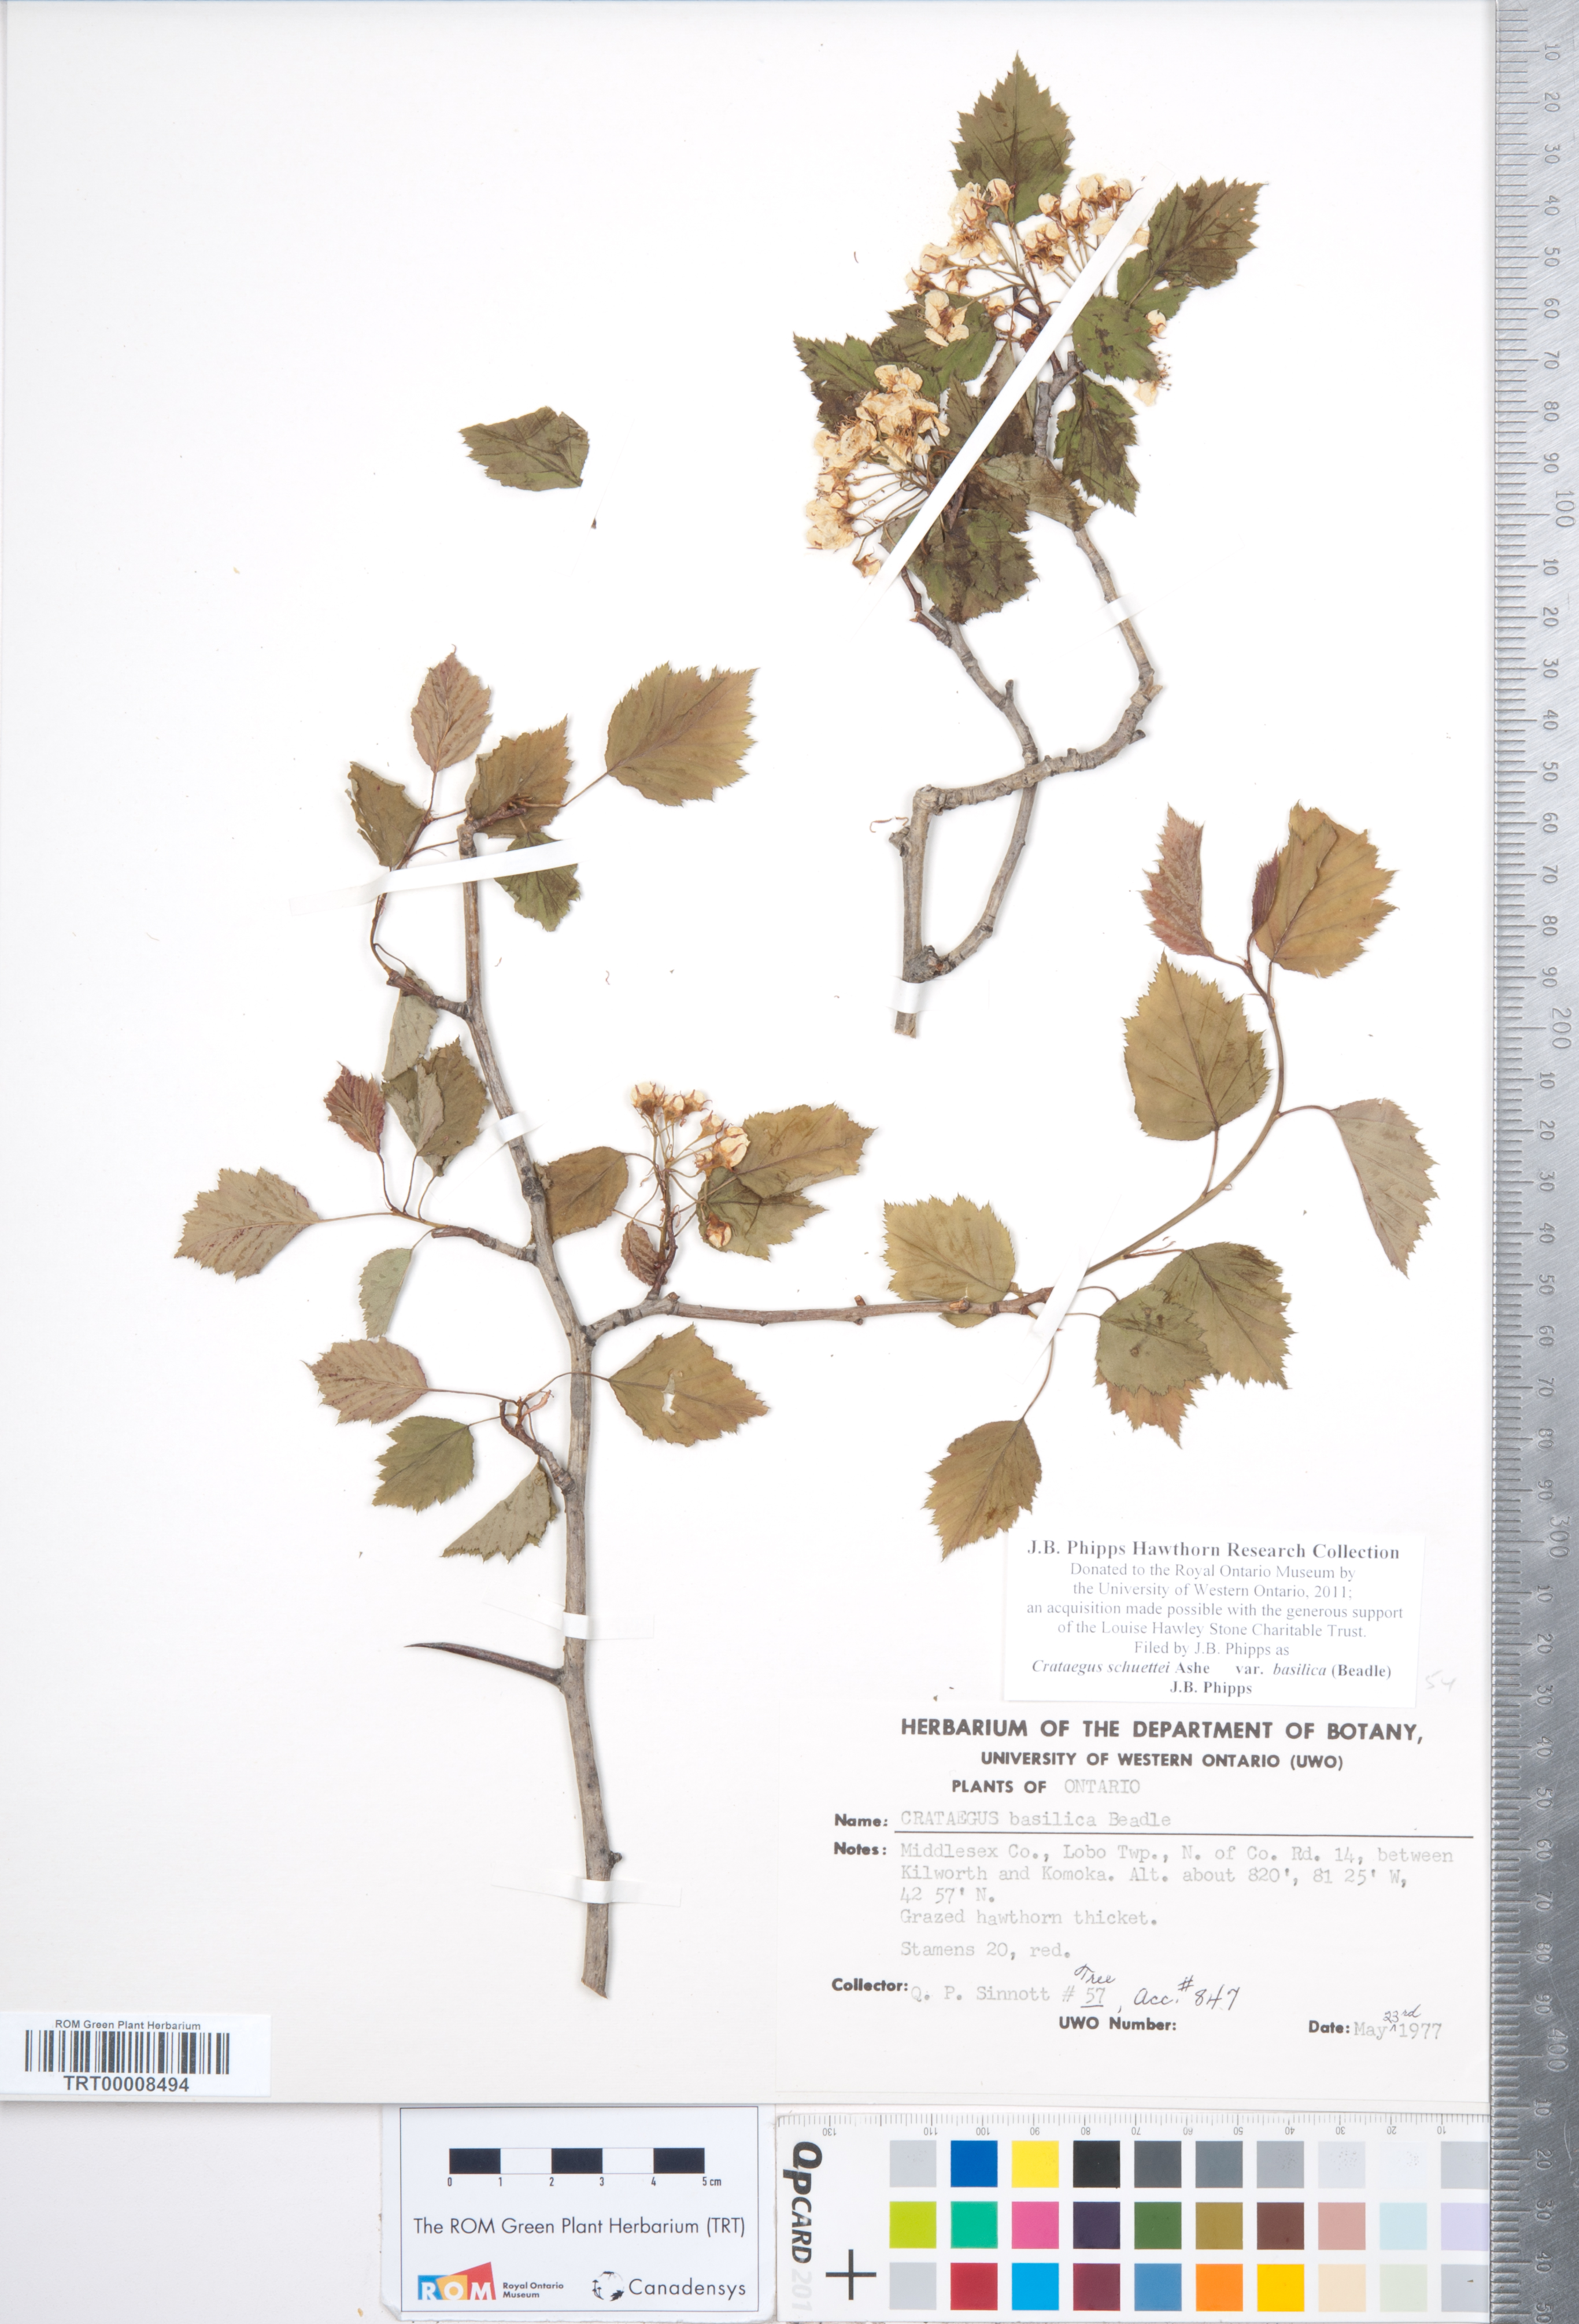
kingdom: Plantae
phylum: Tracheophyta
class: Magnoliopsida
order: Rosales
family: Rosaceae
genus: Crataegus
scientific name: Crataegus schuettei
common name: Schuette's hawthorn
